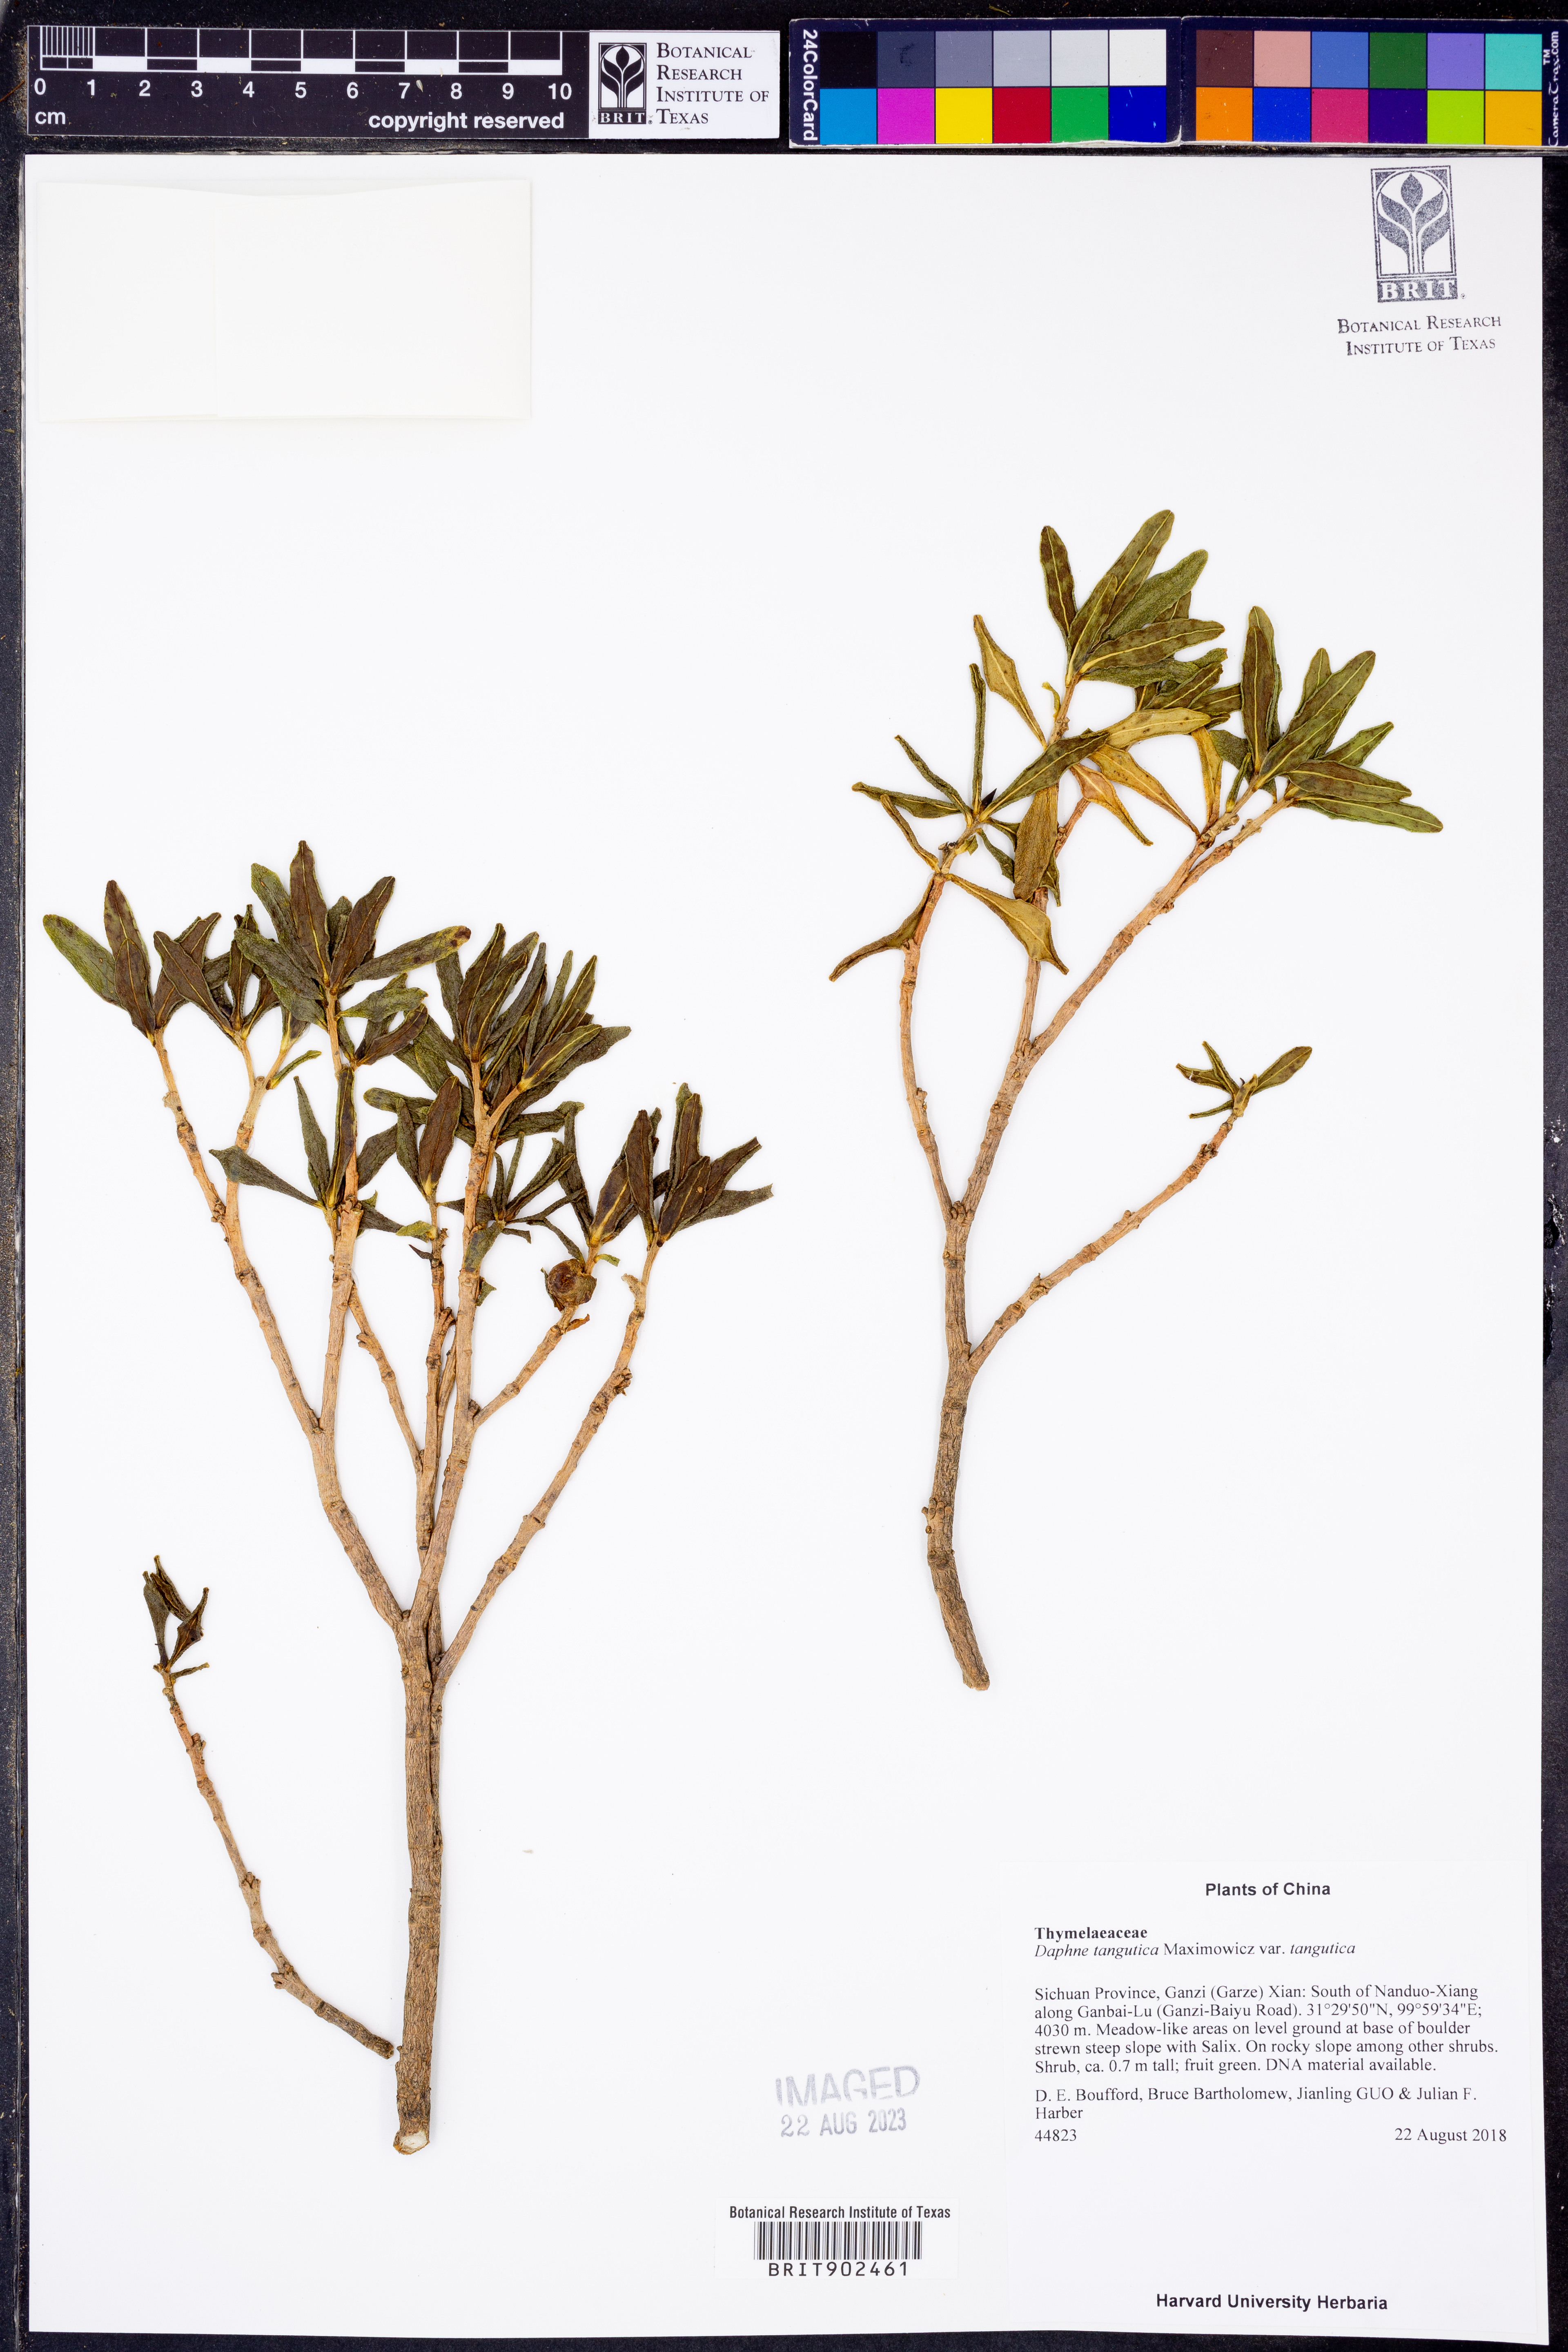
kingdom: Plantae
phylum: Tracheophyta
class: Magnoliopsida
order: Malvales
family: Thymelaeaceae
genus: Daphne
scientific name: Daphne tangutica
